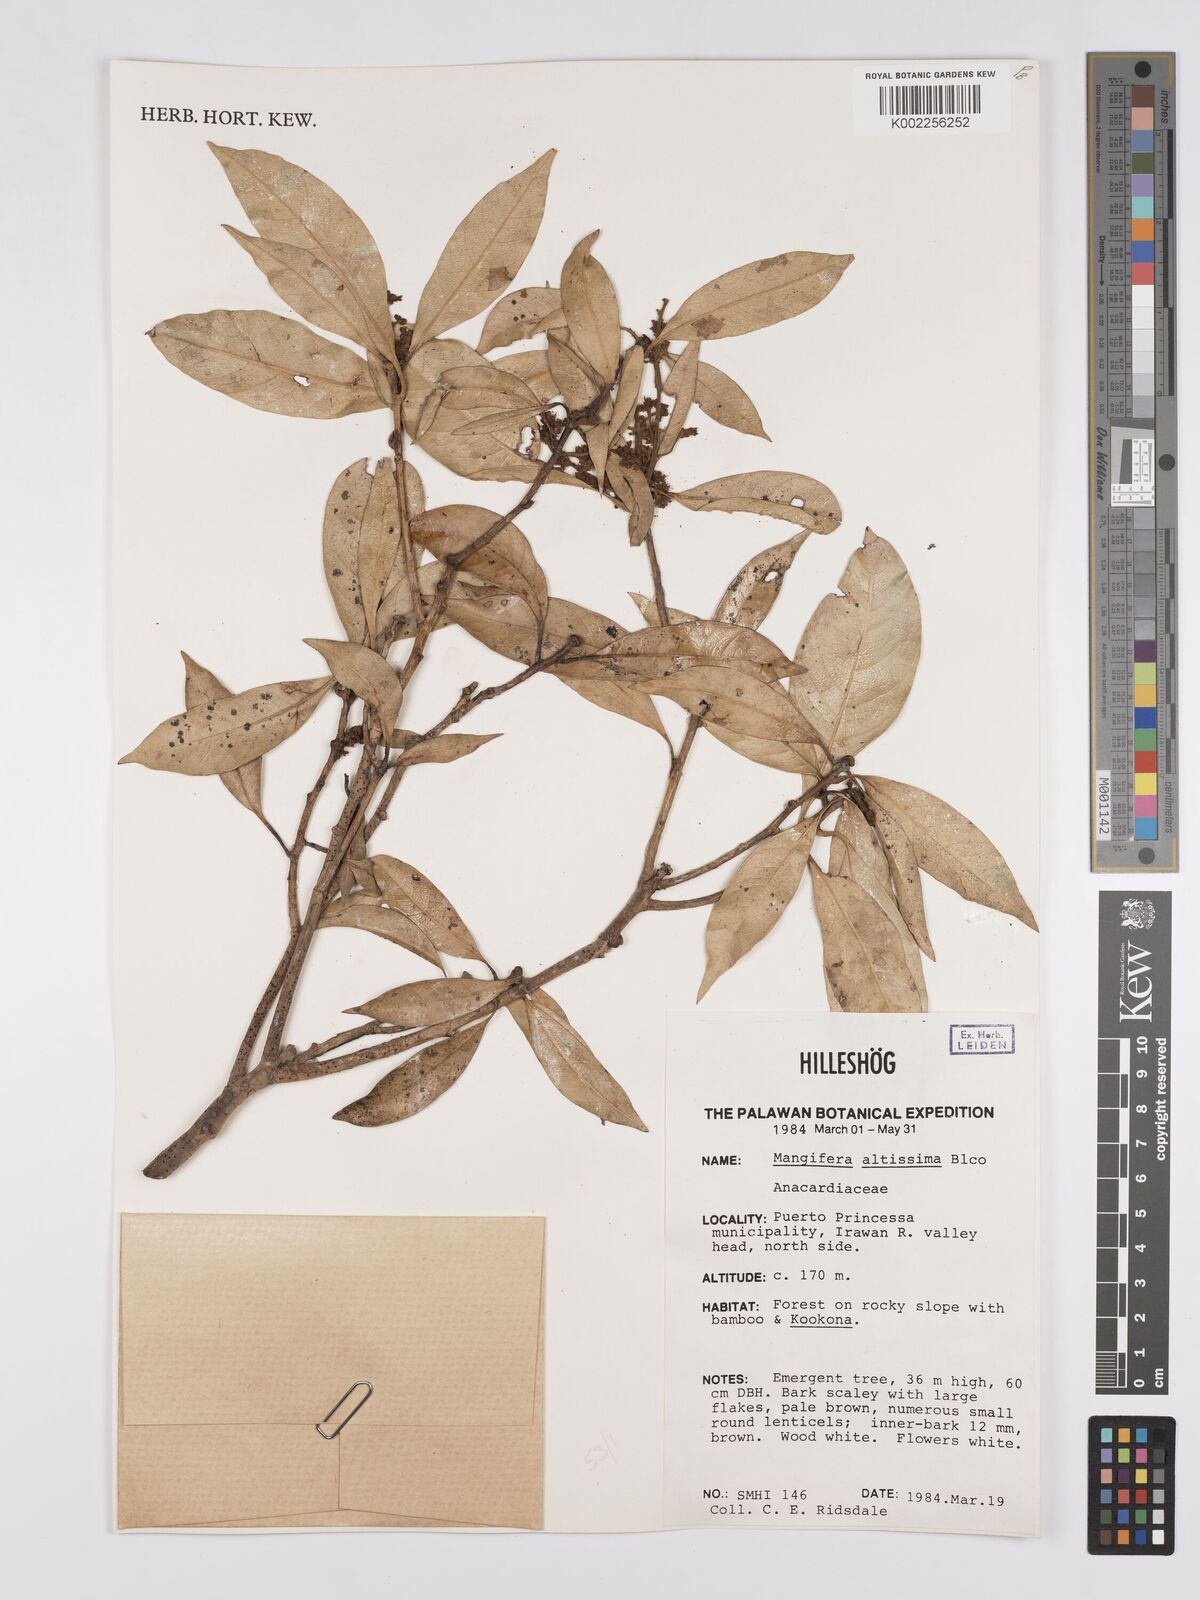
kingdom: Plantae
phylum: Tracheophyta
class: Magnoliopsida
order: Sapindales
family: Anacardiaceae
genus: Mangifera
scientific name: Mangifera altissima
